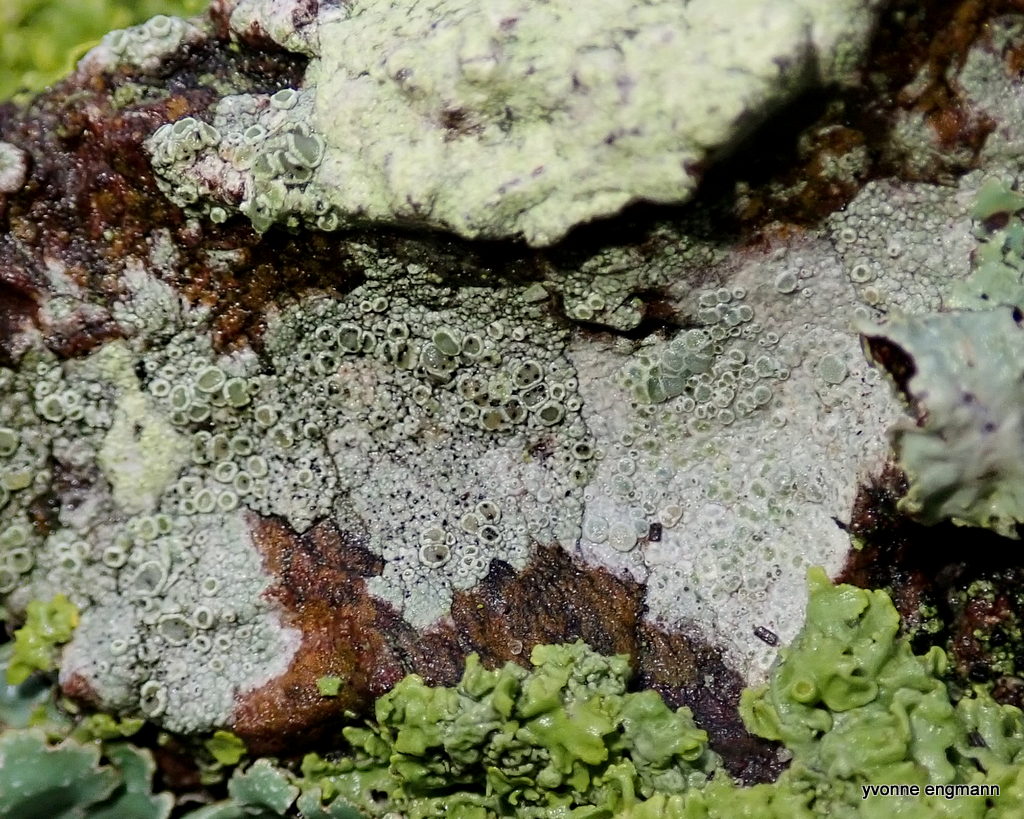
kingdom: Fungi
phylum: Ascomycota
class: Lecanoromycetes
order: Lecanorales
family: Lecanoraceae
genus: Lecanora
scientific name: Lecanora chlarotera
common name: brun kantskivelav
